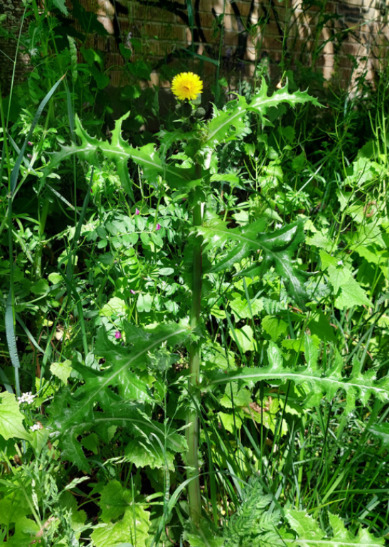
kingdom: Plantae
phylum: Tracheophyta
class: Magnoliopsida
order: Asterales
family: Asteraceae
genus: Sonchus
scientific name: Sonchus asper
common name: Ru svinemælk
